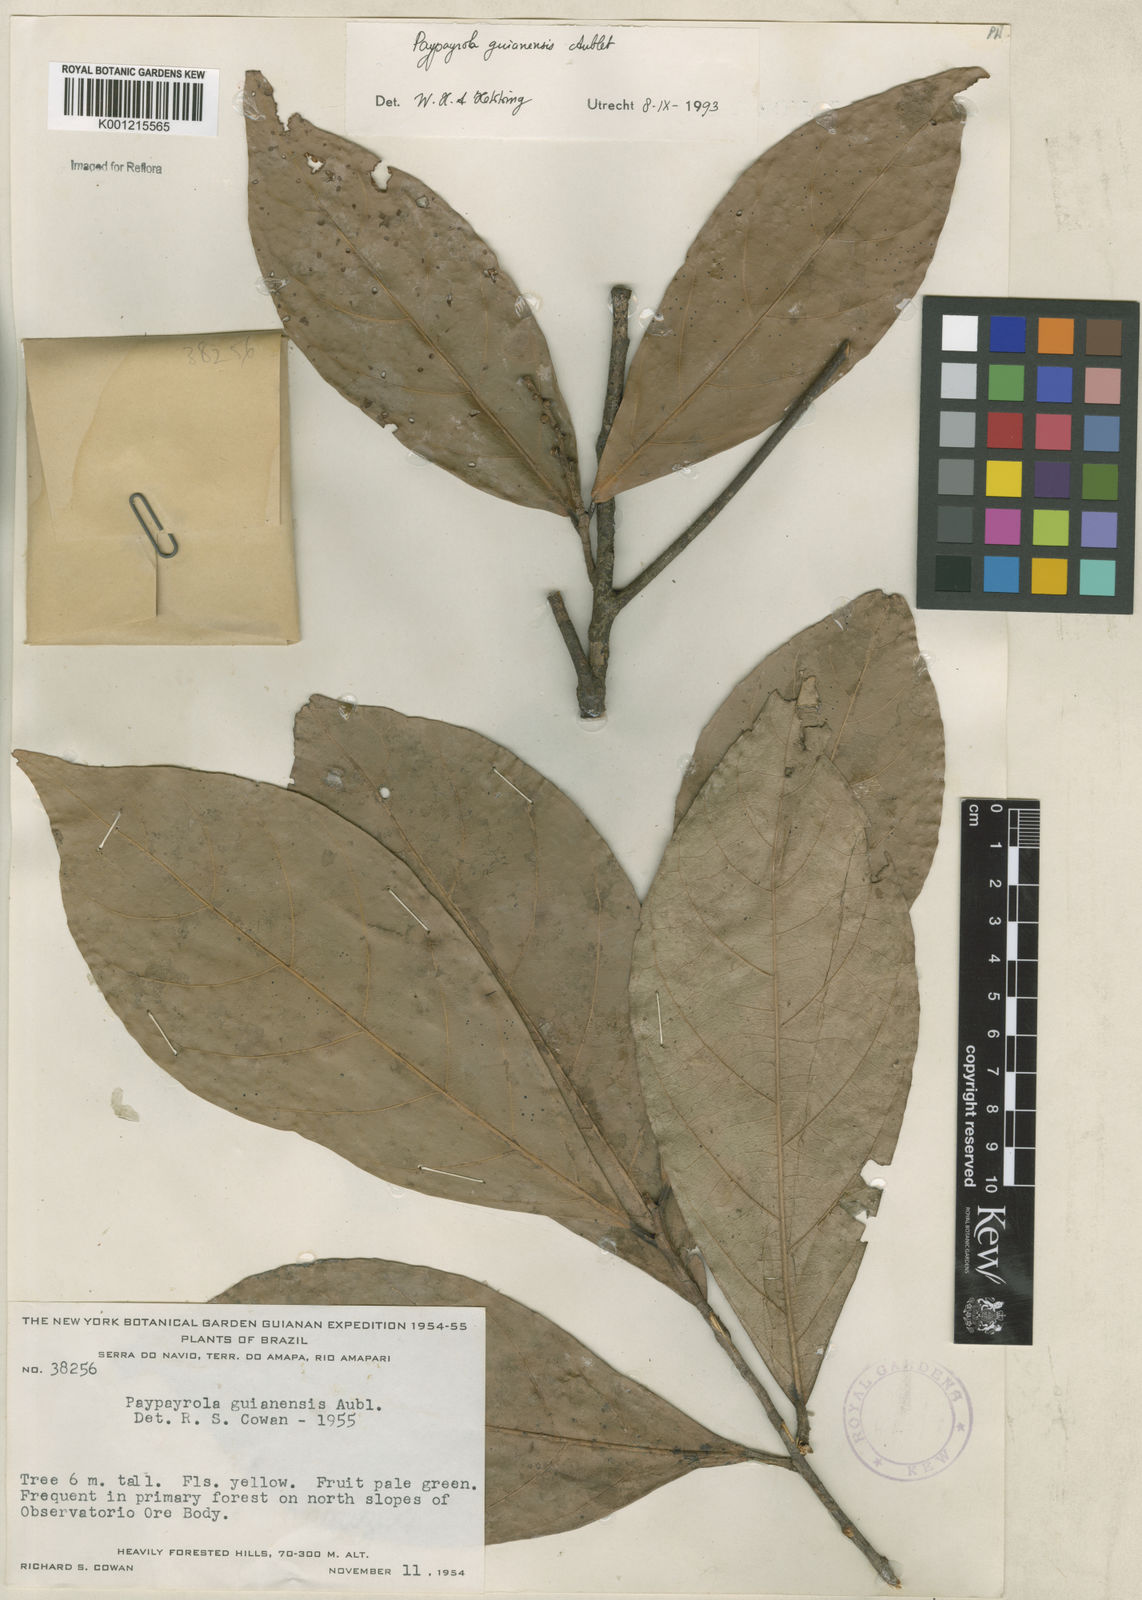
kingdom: Plantae
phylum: Tracheophyta
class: Magnoliopsida
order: Malpighiales
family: Violaceae
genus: Paypayrola
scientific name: Paypayrola guianensis
